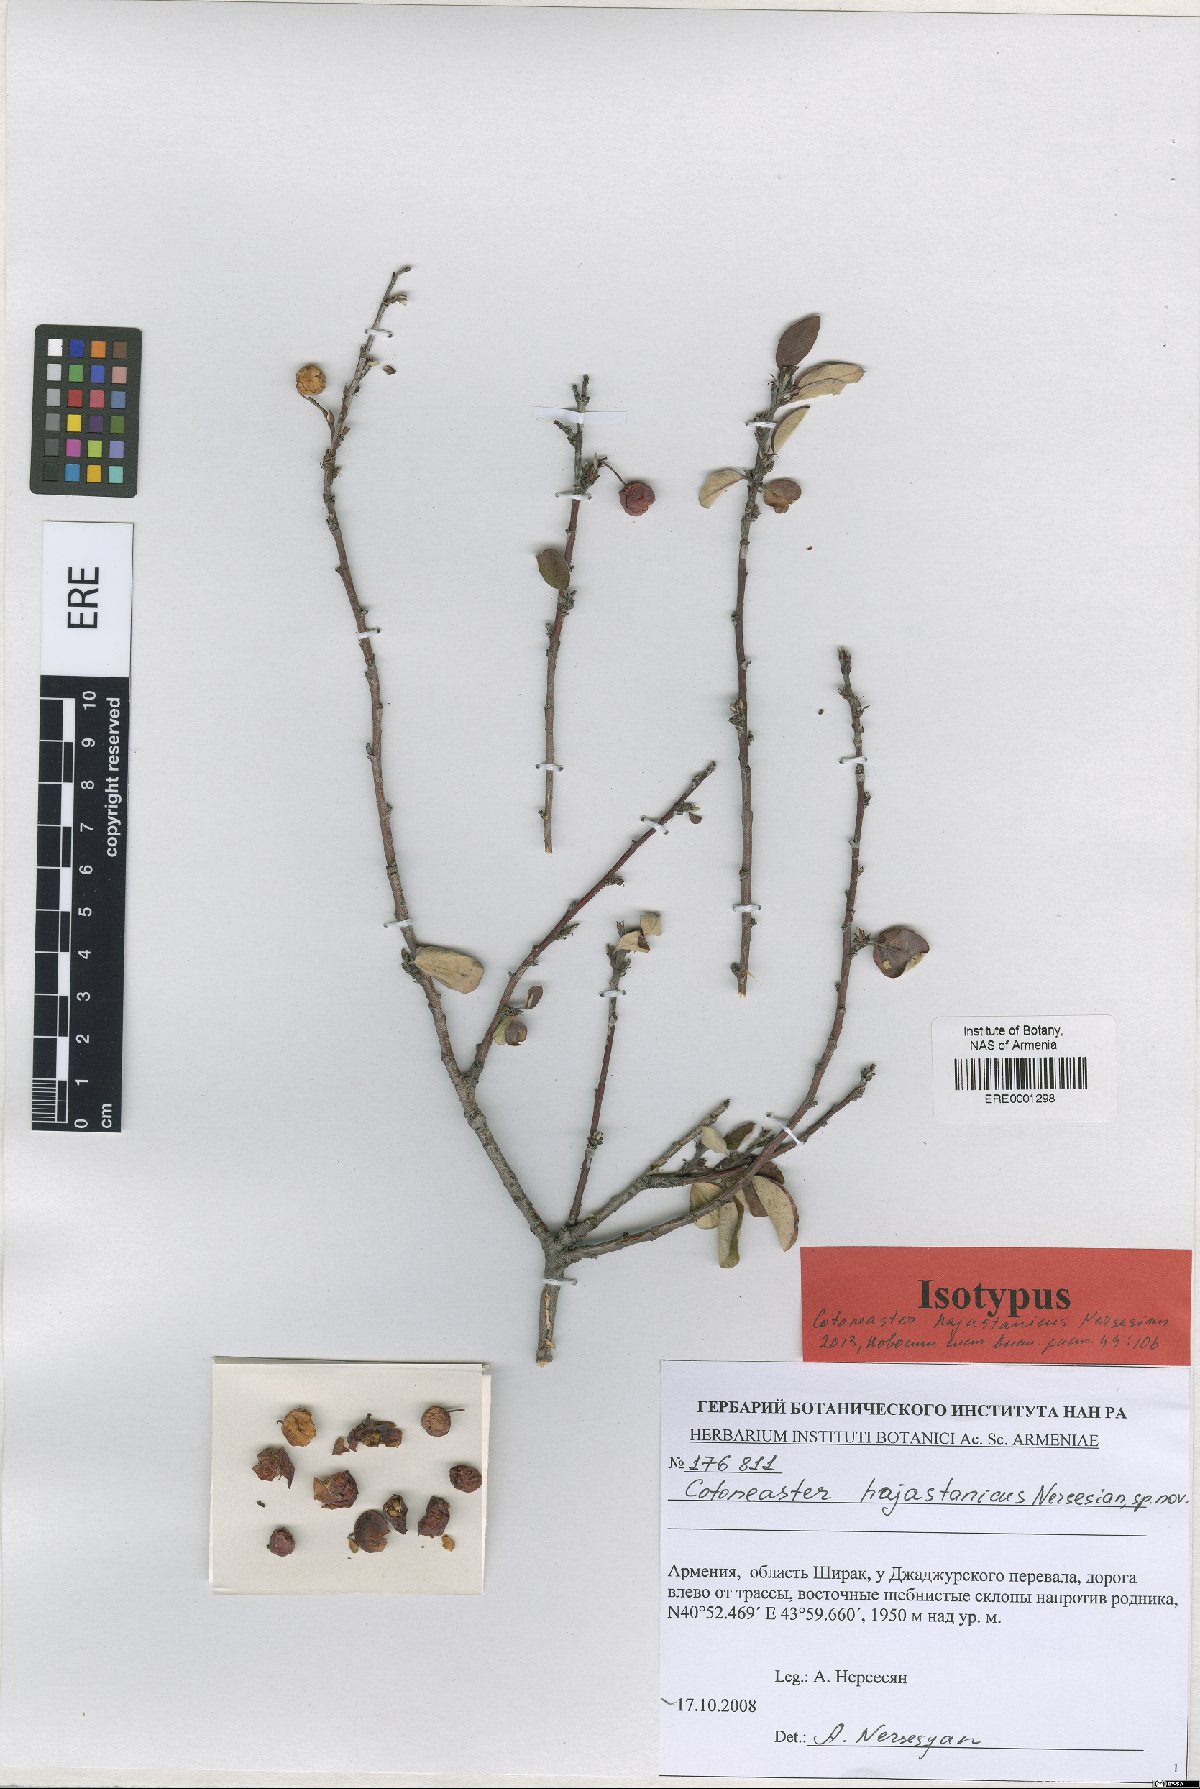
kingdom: Plantae
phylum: Tracheophyta
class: Magnoliopsida
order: Rosales
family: Rosaceae
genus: Cotoneaster
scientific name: Cotoneaster hajastanicus
